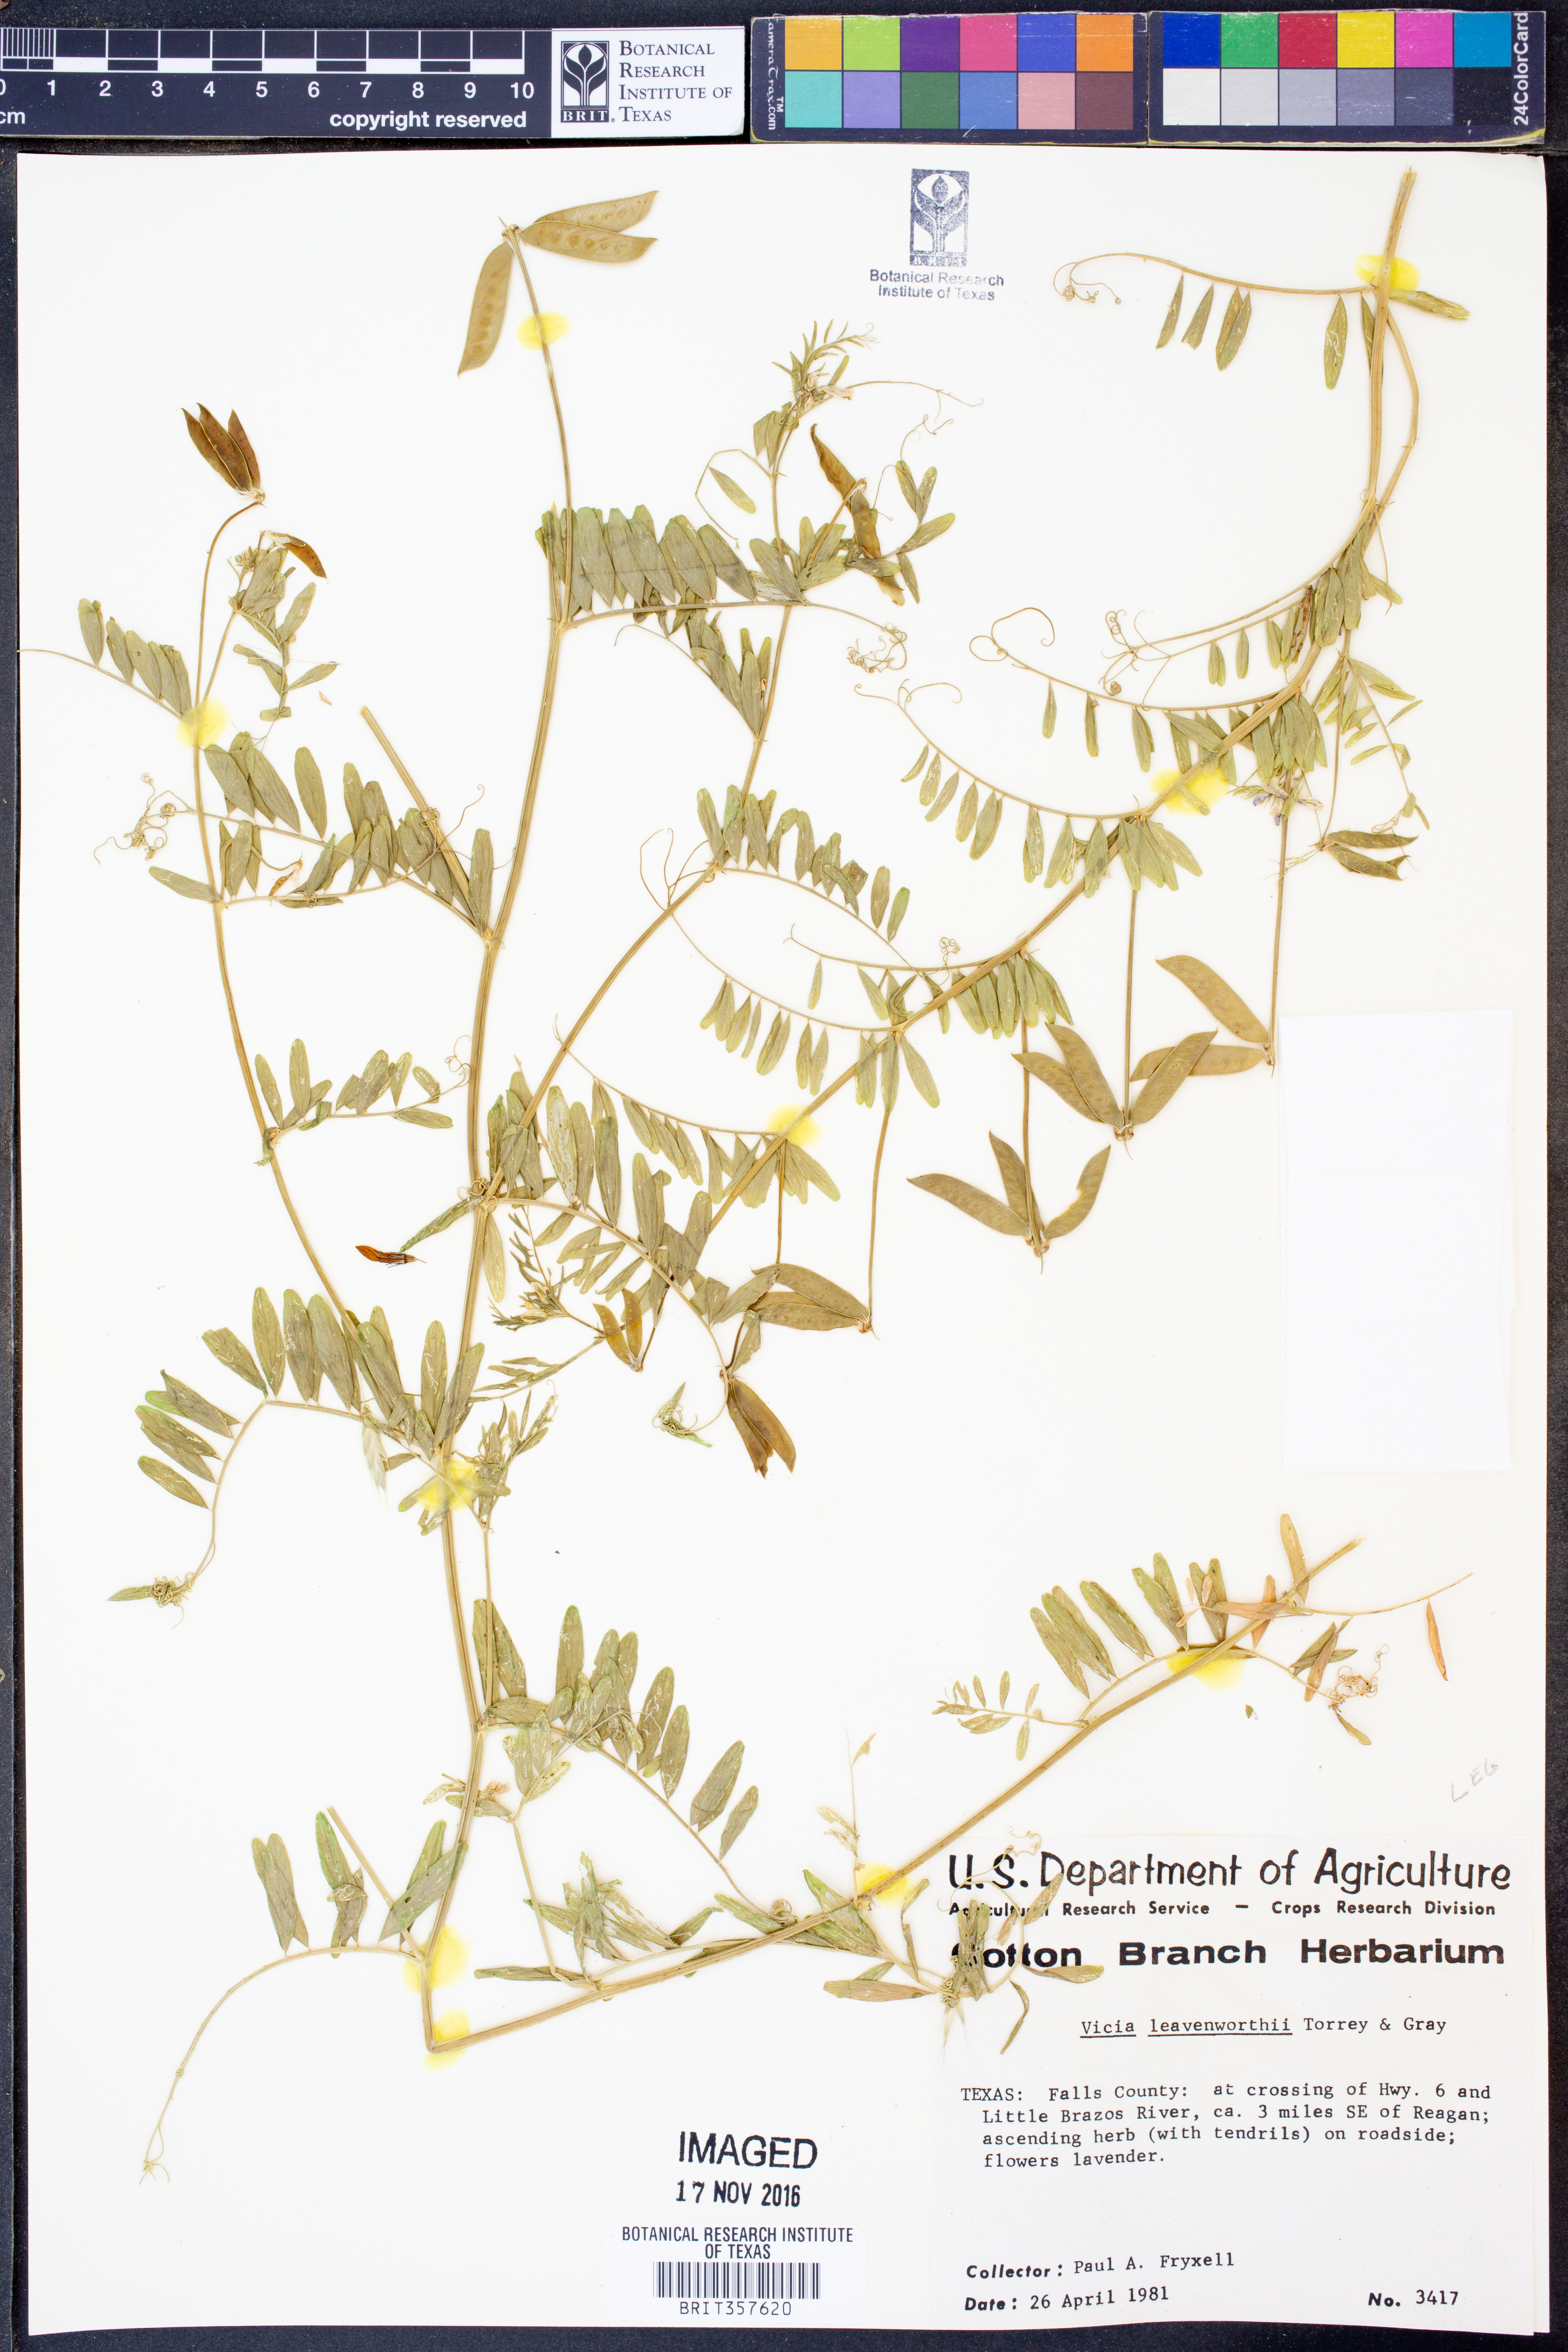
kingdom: Plantae
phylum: Tracheophyta
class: Magnoliopsida
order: Fabales
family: Fabaceae
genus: Vicia
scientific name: Vicia ludoviciana
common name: Louisiana vetch
